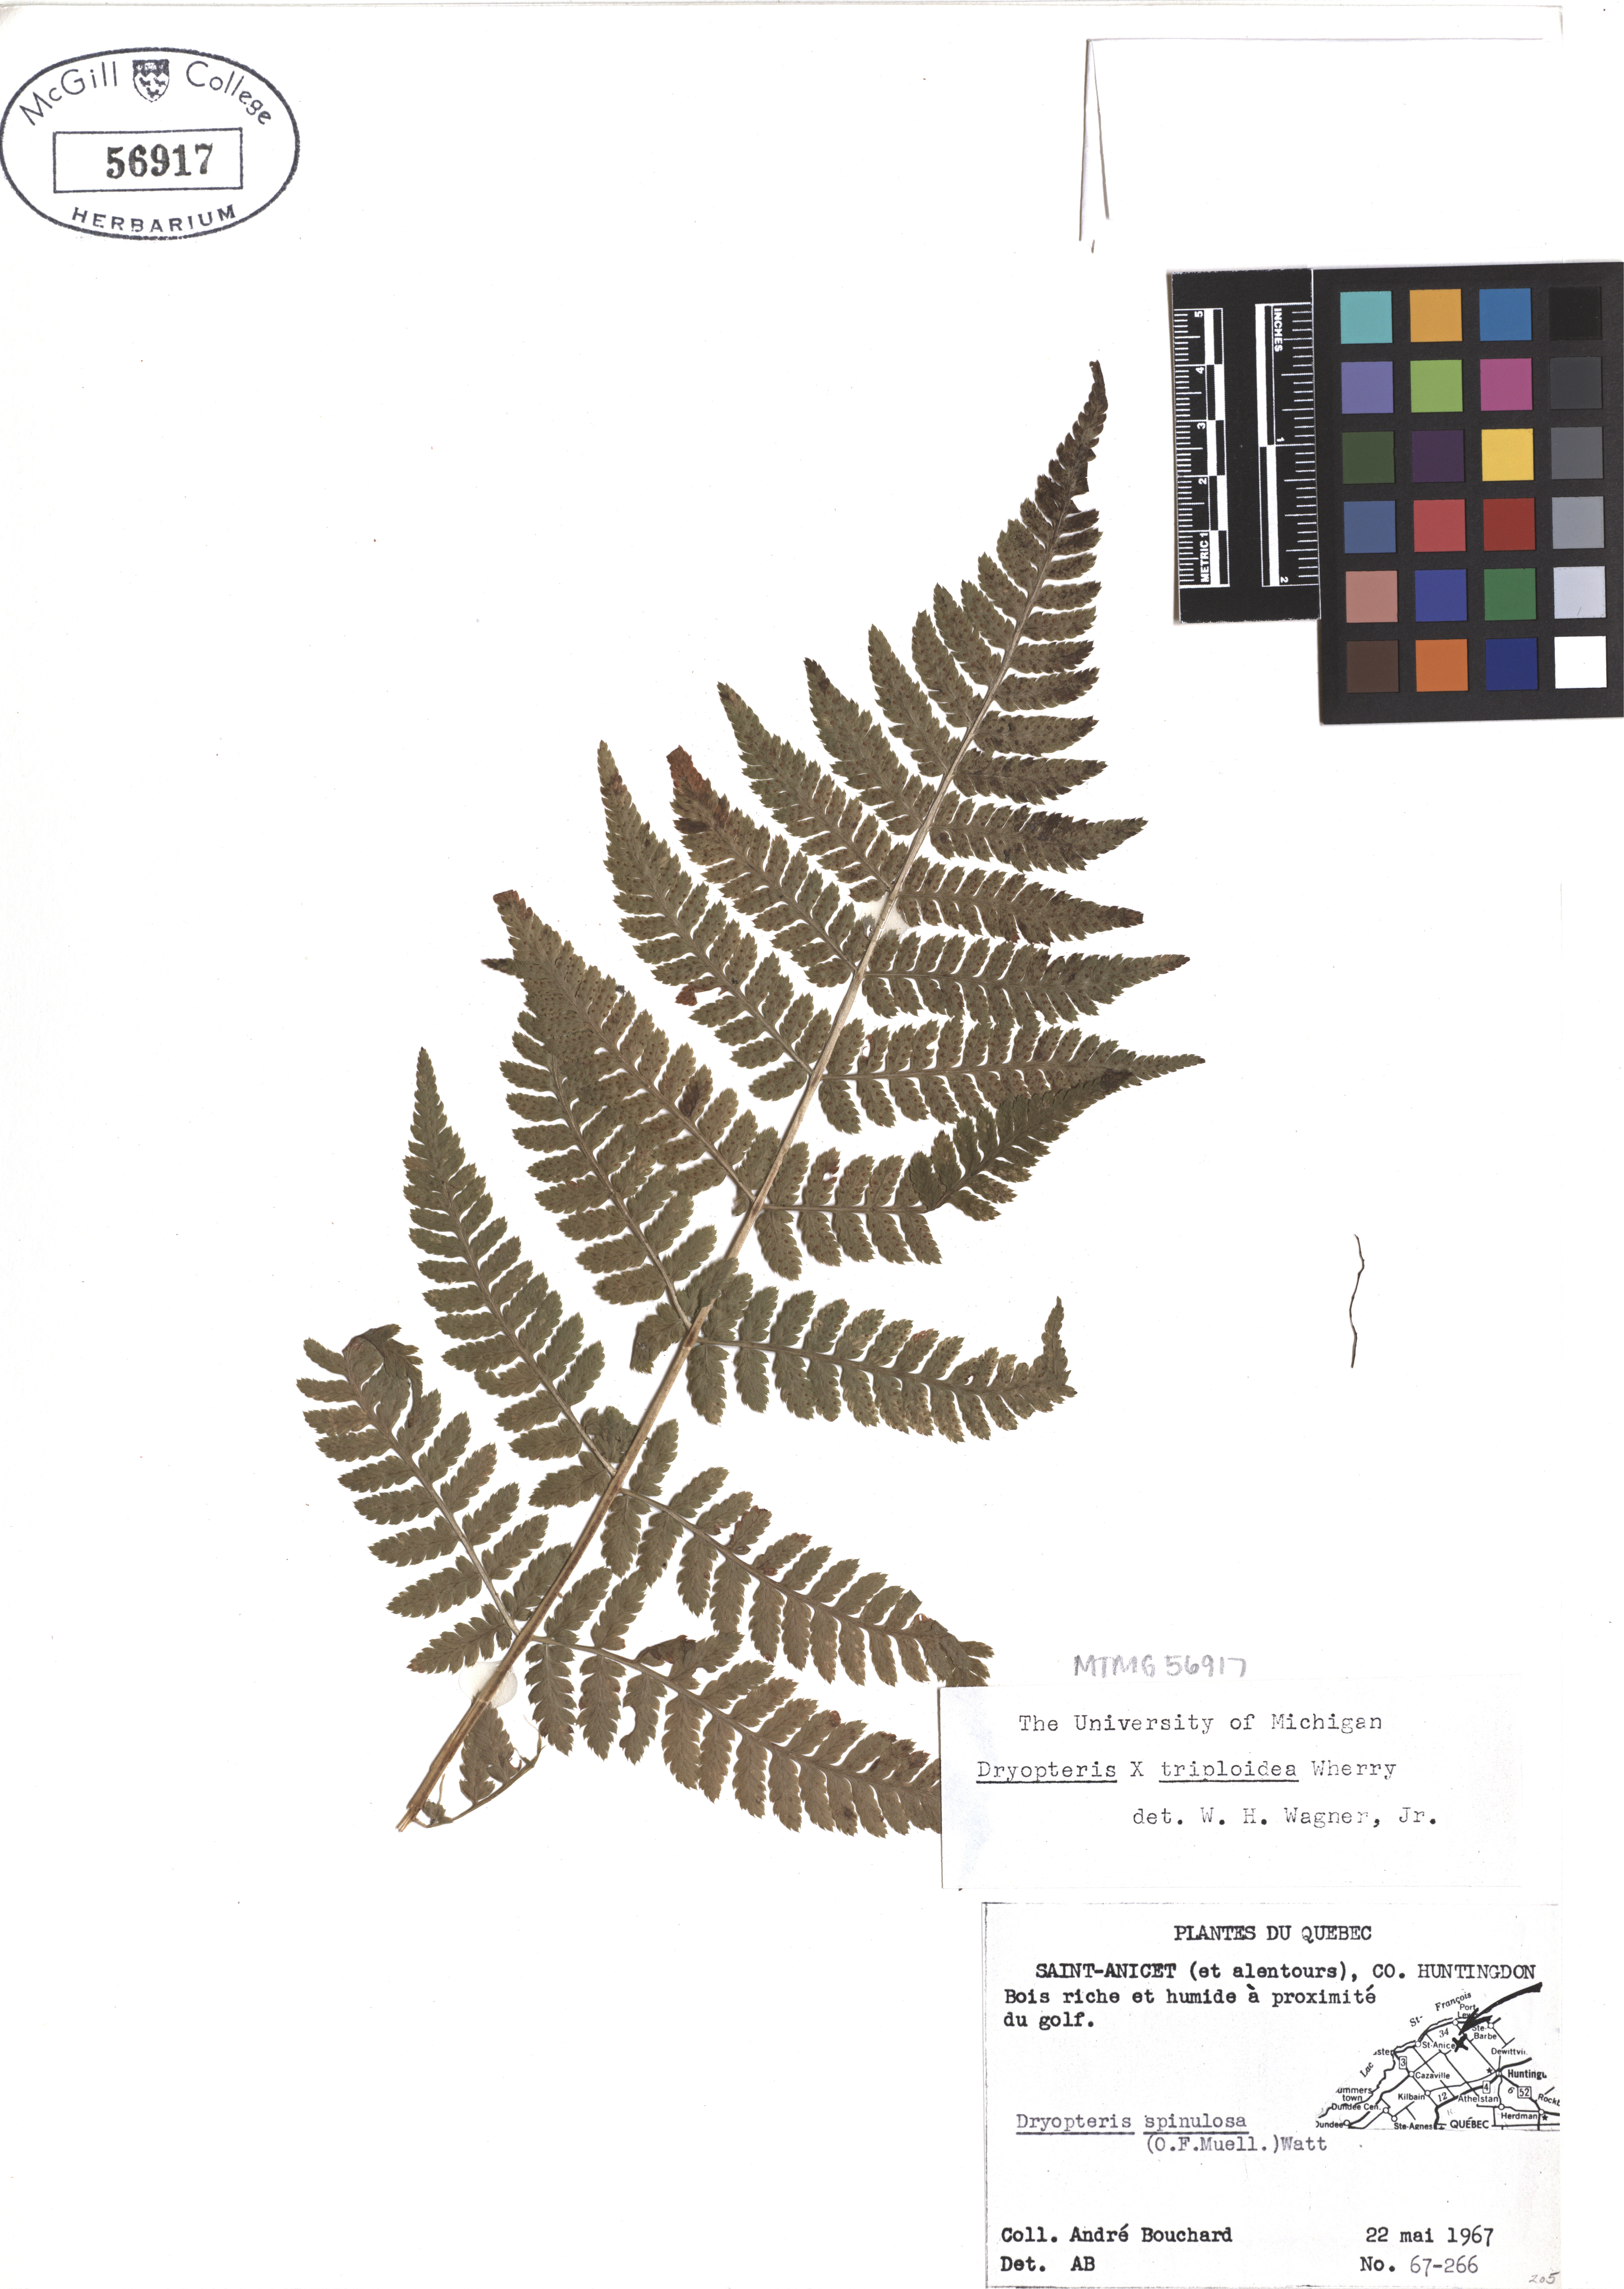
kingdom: Plantae
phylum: Tracheophyta
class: Polypodiopsida
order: Polypodiales
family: Dryopteridaceae
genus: Dryopteris
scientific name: Dryopteris triploidea
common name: Fruitful wood fern
